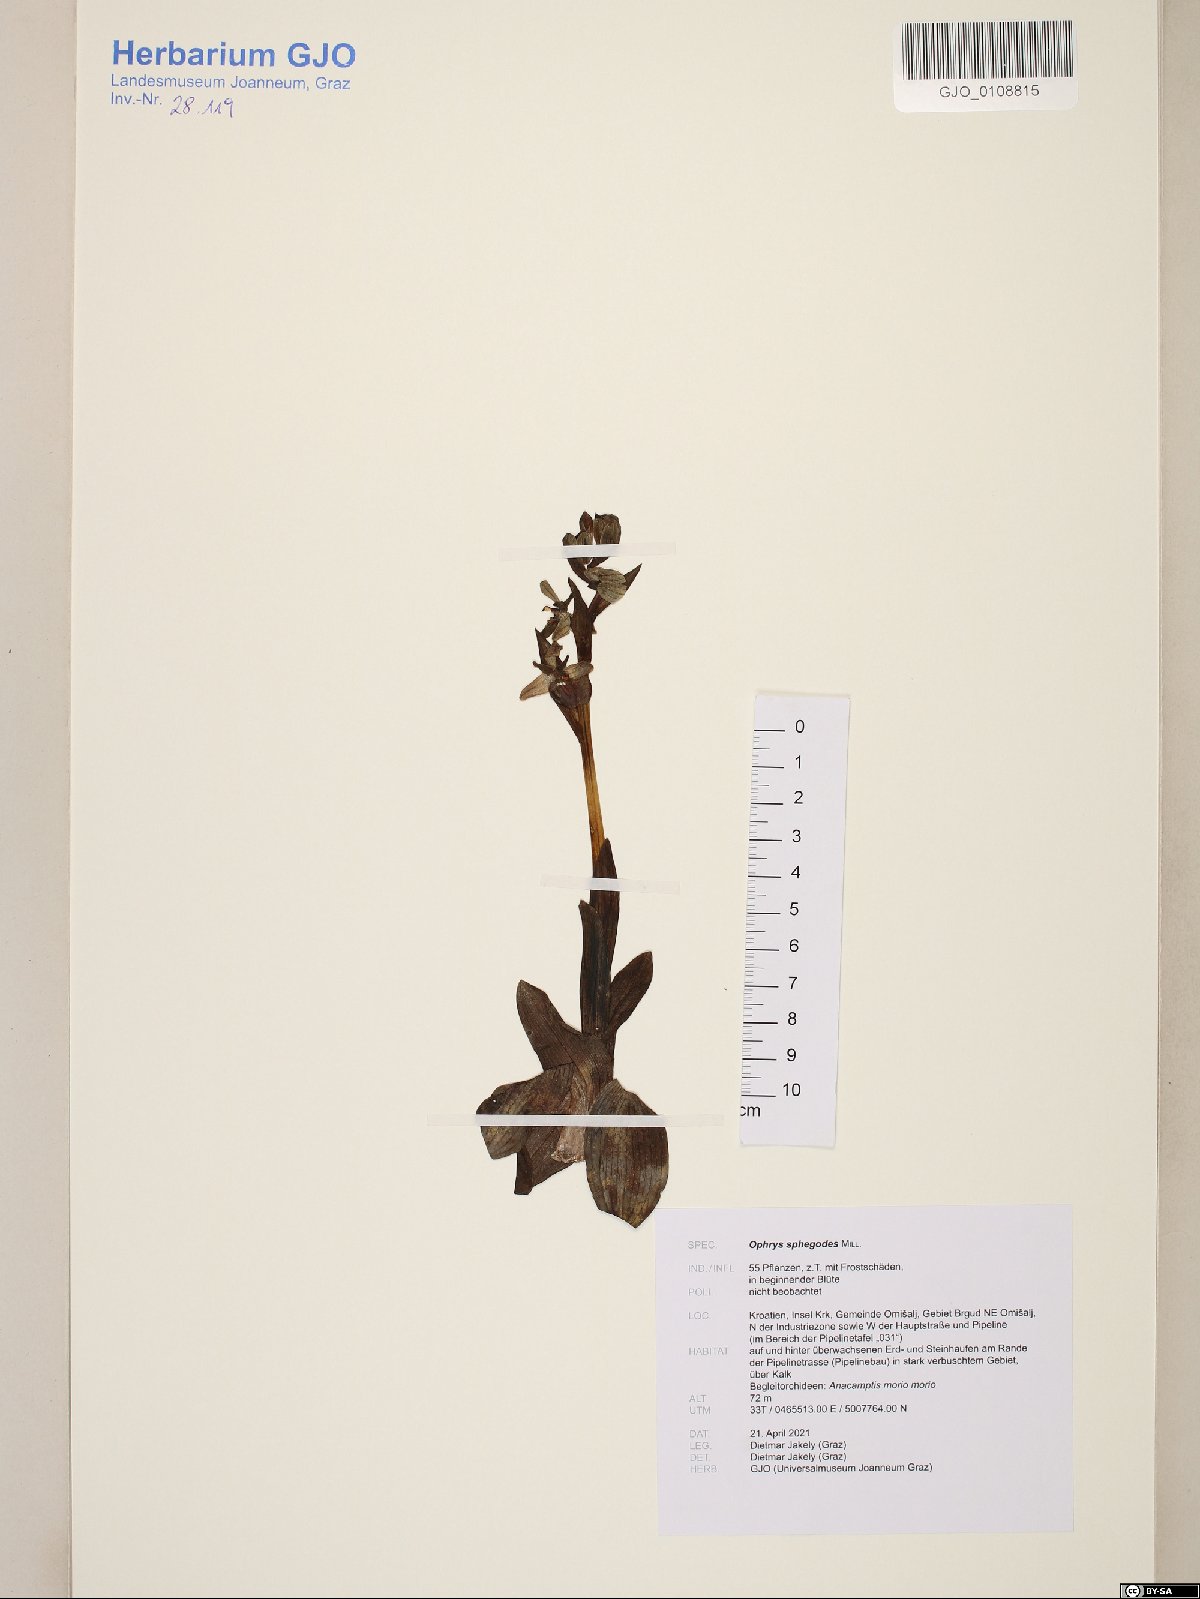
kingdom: Plantae
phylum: Tracheophyta
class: Liliopsida
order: Asparagales
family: Orchidaceae
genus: Ophrys
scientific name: Ophrys sphegodes
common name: Early spider-orchid
